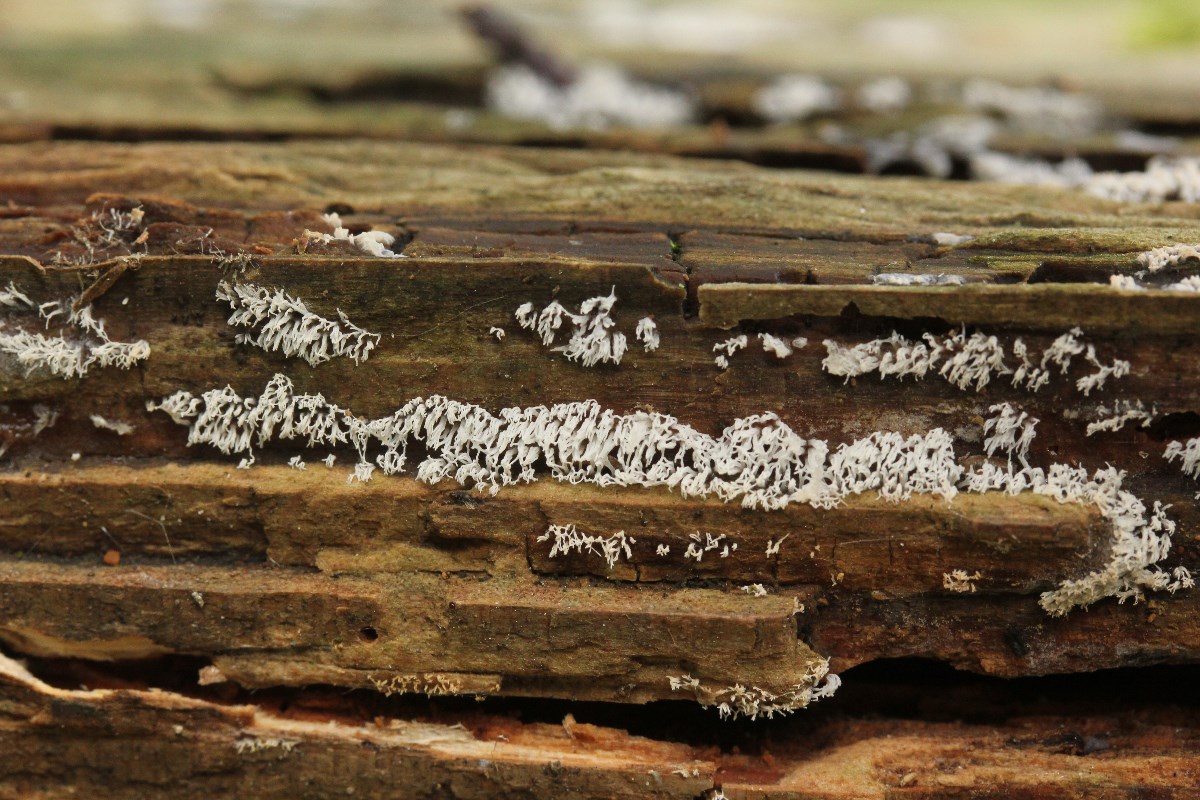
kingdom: Protozoa
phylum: Mycetozoa
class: Protosteliomycetes
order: Ceratiomyxales
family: Ceratiomyxaceae
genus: Ceratiomyxa
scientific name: Ceratiomyxa fruticulosa
